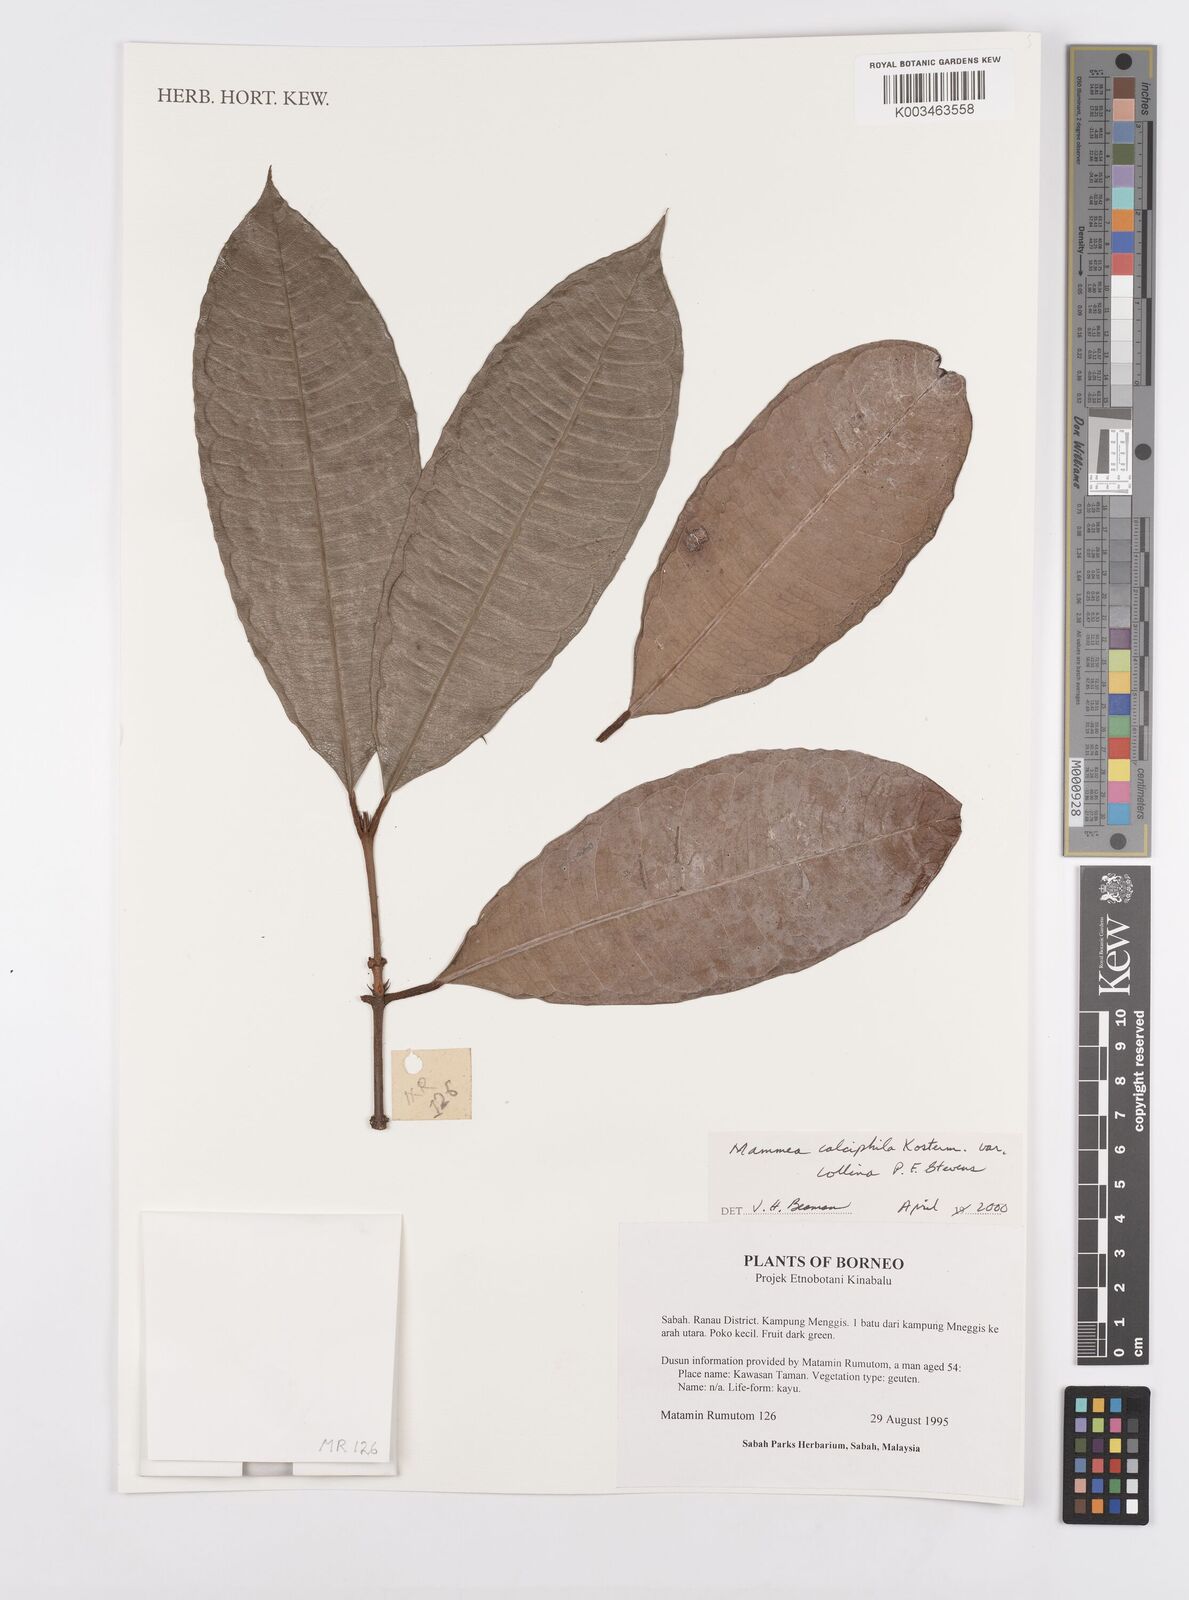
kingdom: Plantae
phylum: Tracheophyta
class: Magnoliopsida
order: Malpighiales
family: Calophyllaceae
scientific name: Calophyllaceae
